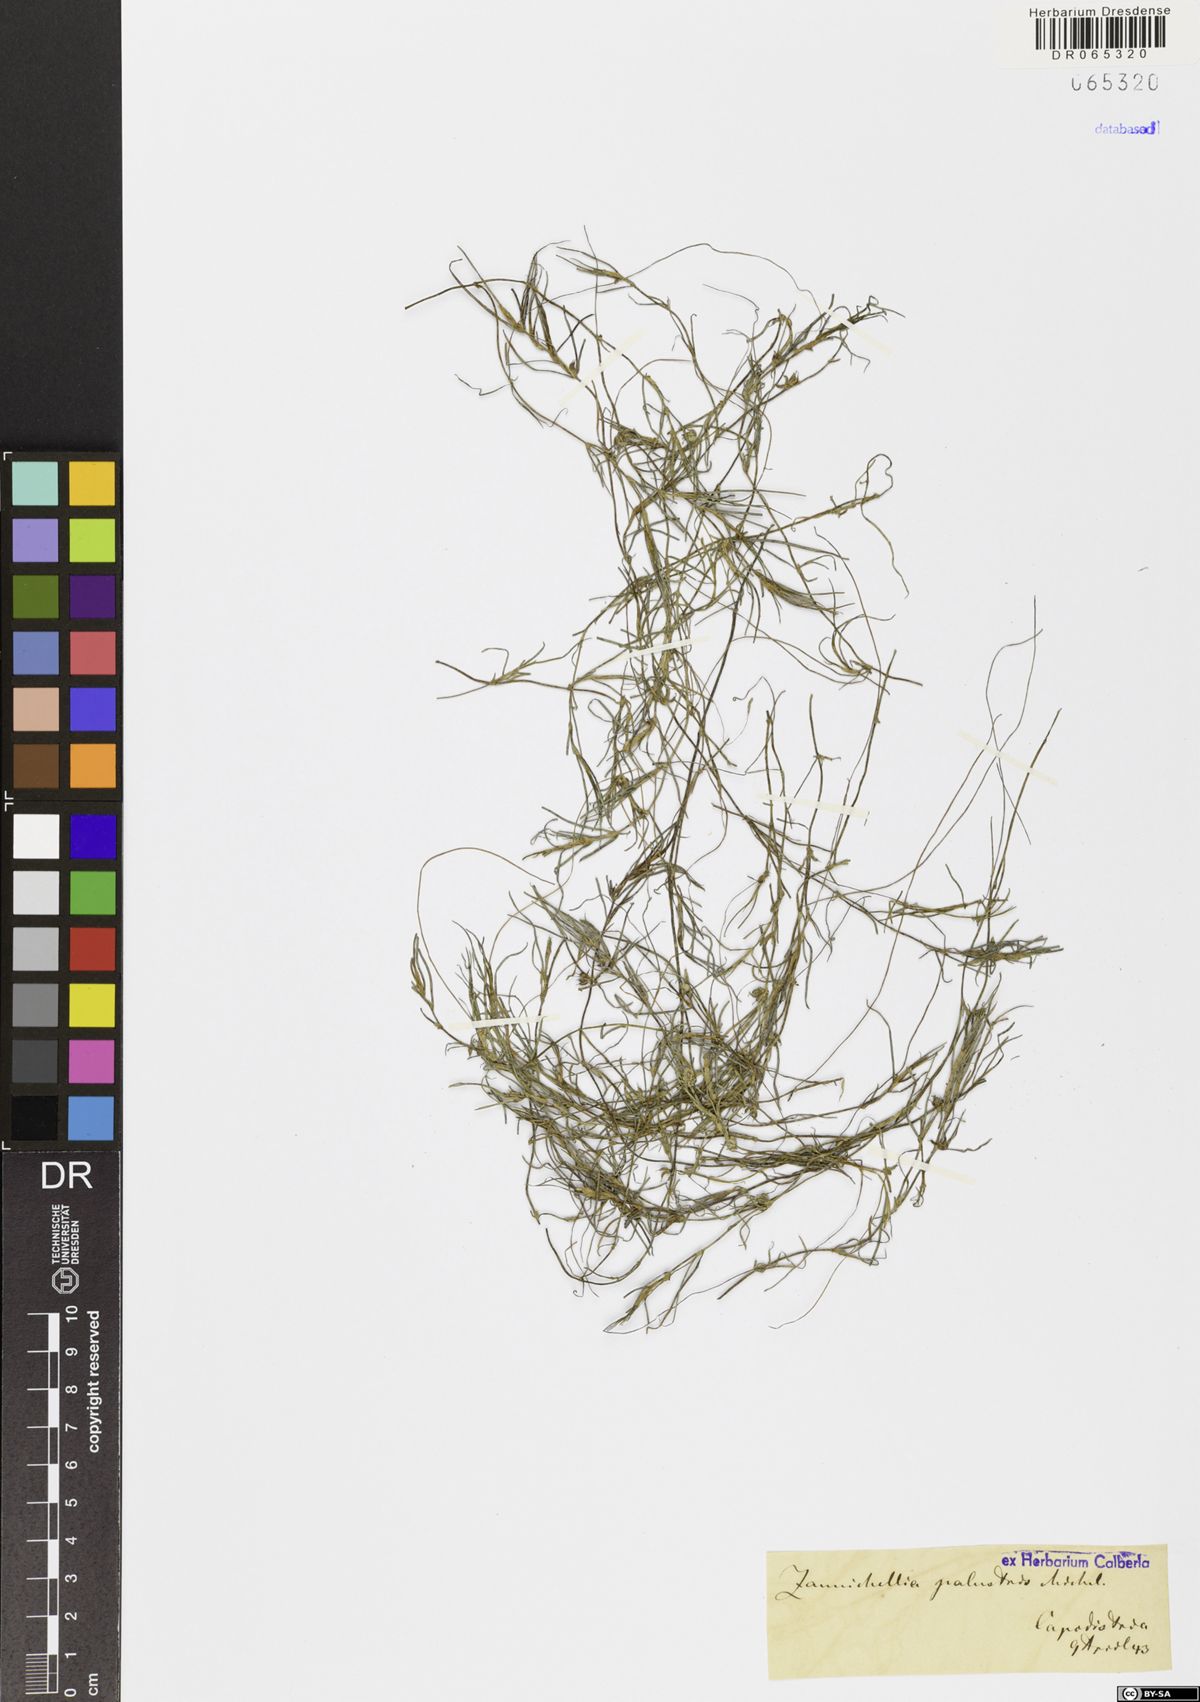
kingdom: Plantae
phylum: Tracheophyta
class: Liliopsida
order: Alismatales
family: Potamogetonaceae
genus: Zannichellia
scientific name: Zannichellia palustris
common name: Horned pondweed
